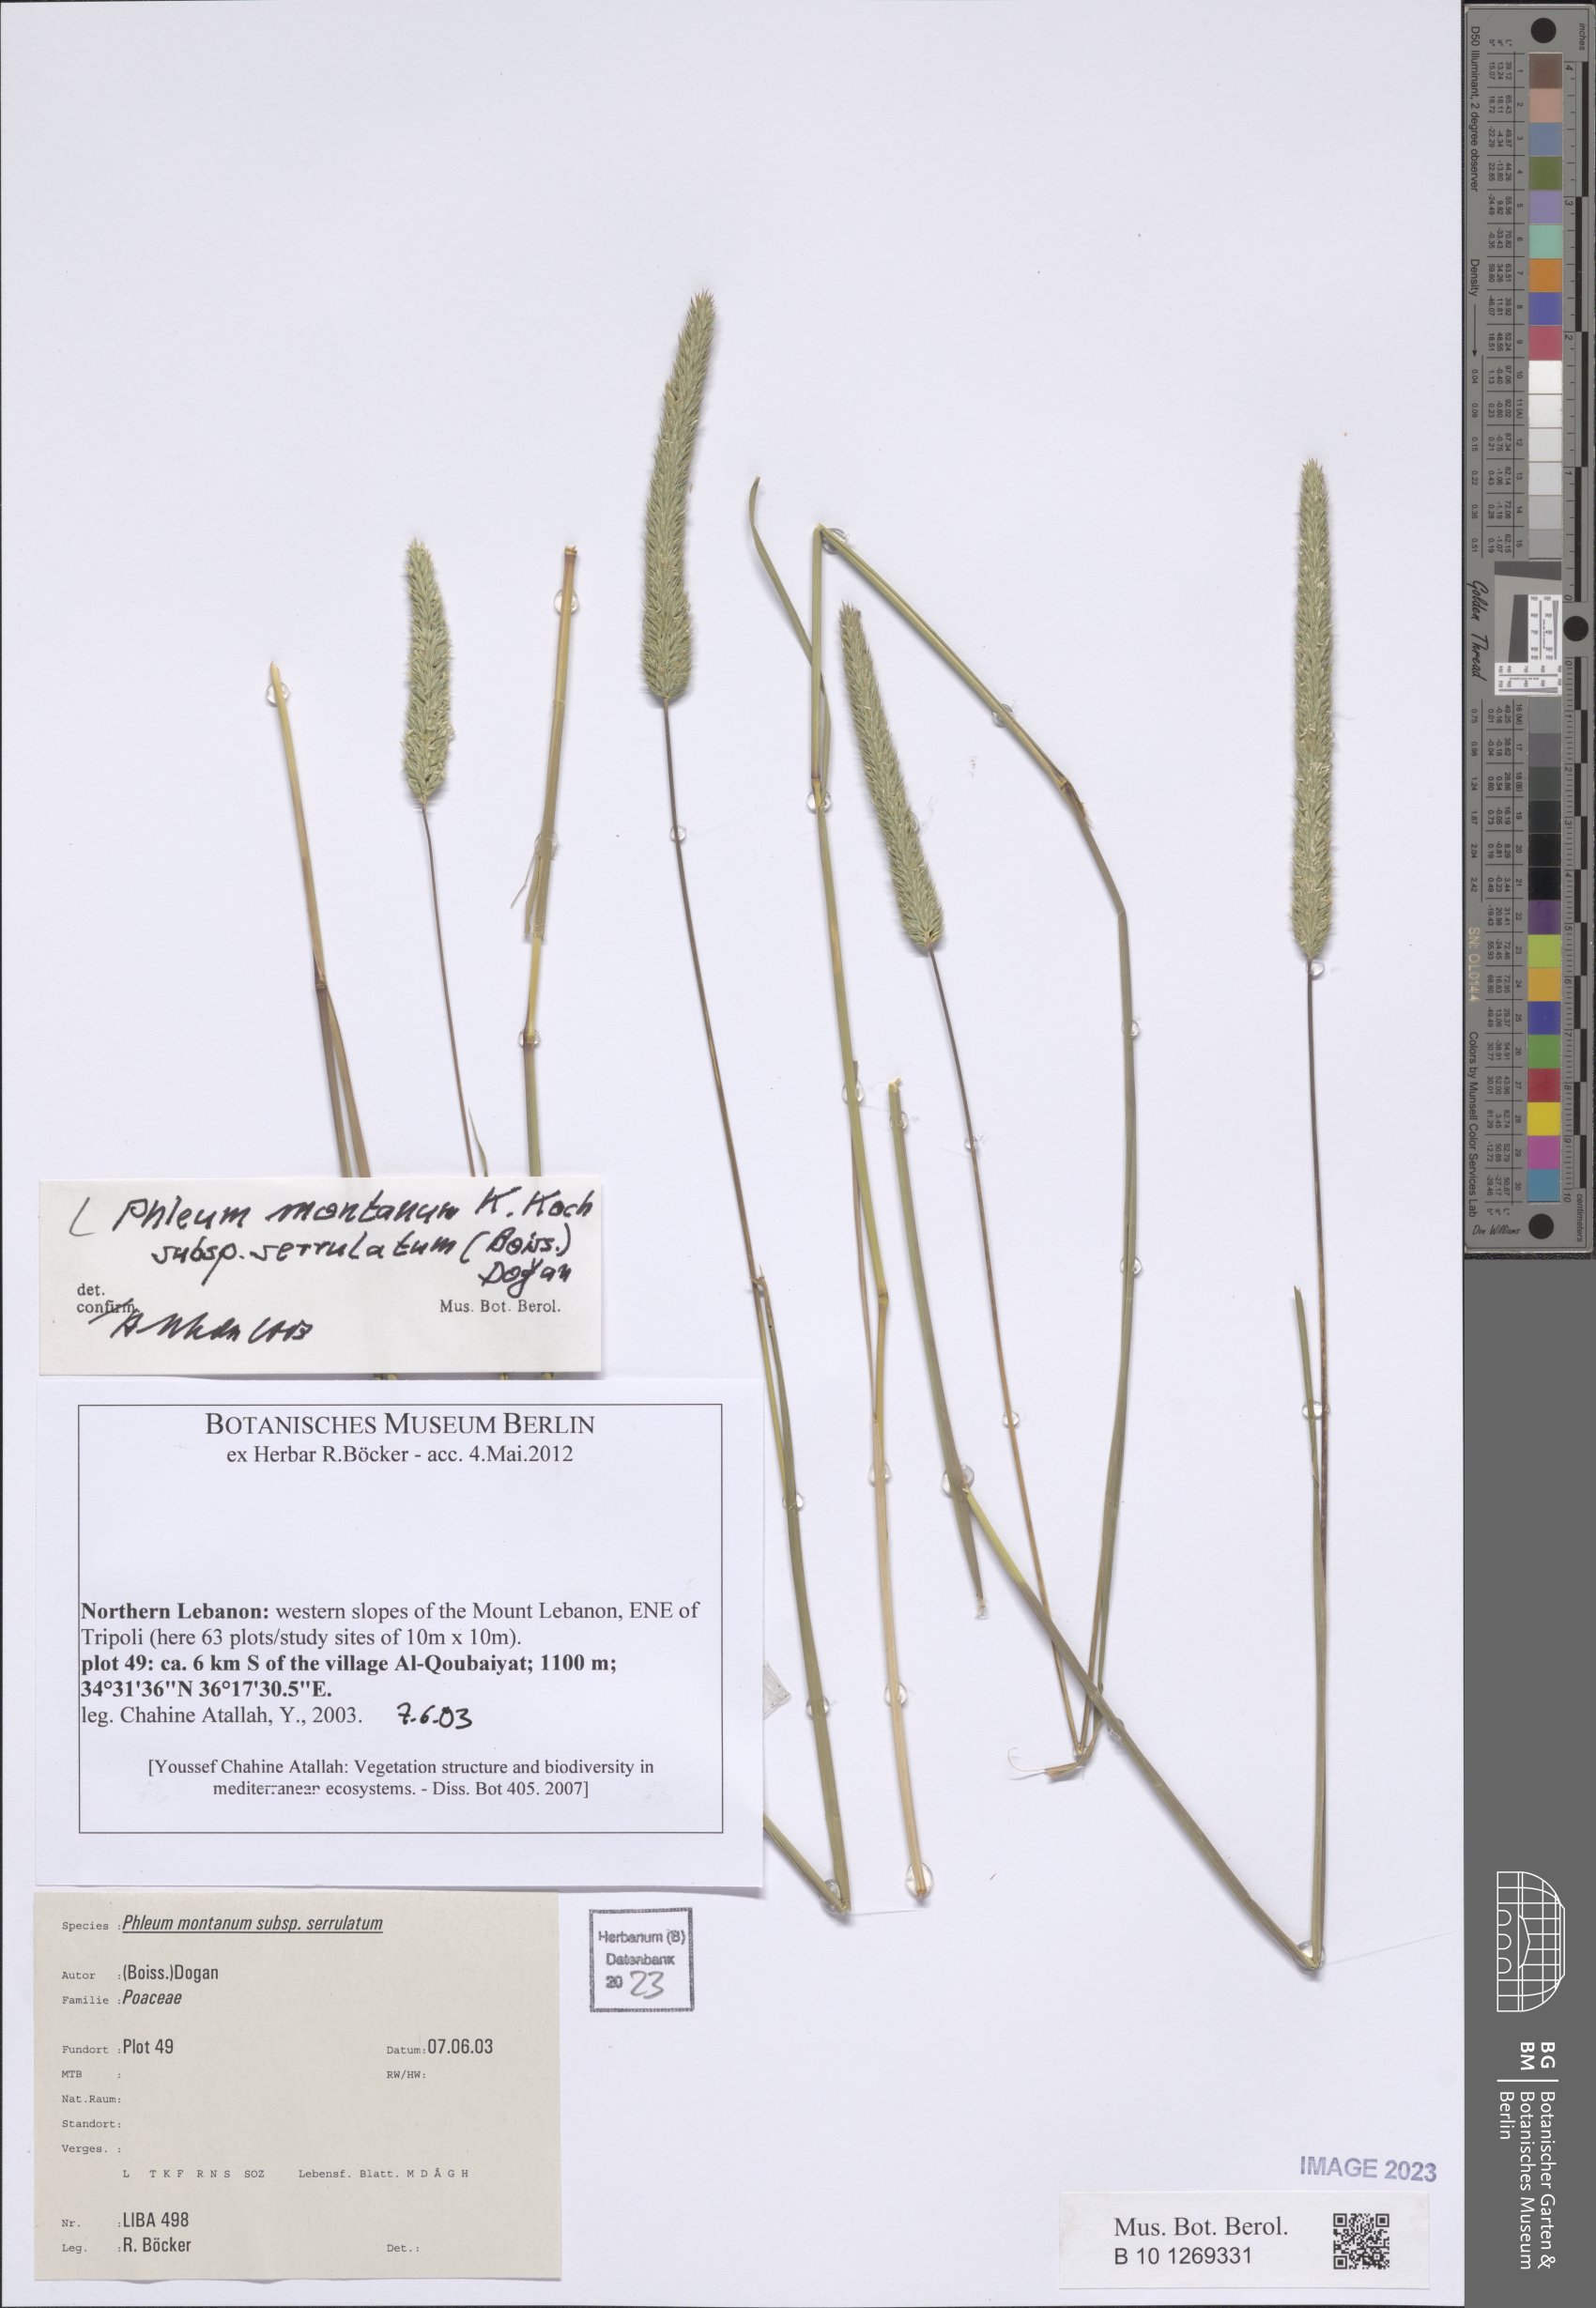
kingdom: Plantae
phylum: Tracheophyta
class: Liliopsida
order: Poales
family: Poaceae
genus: Phleum
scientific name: Phleum montanum
